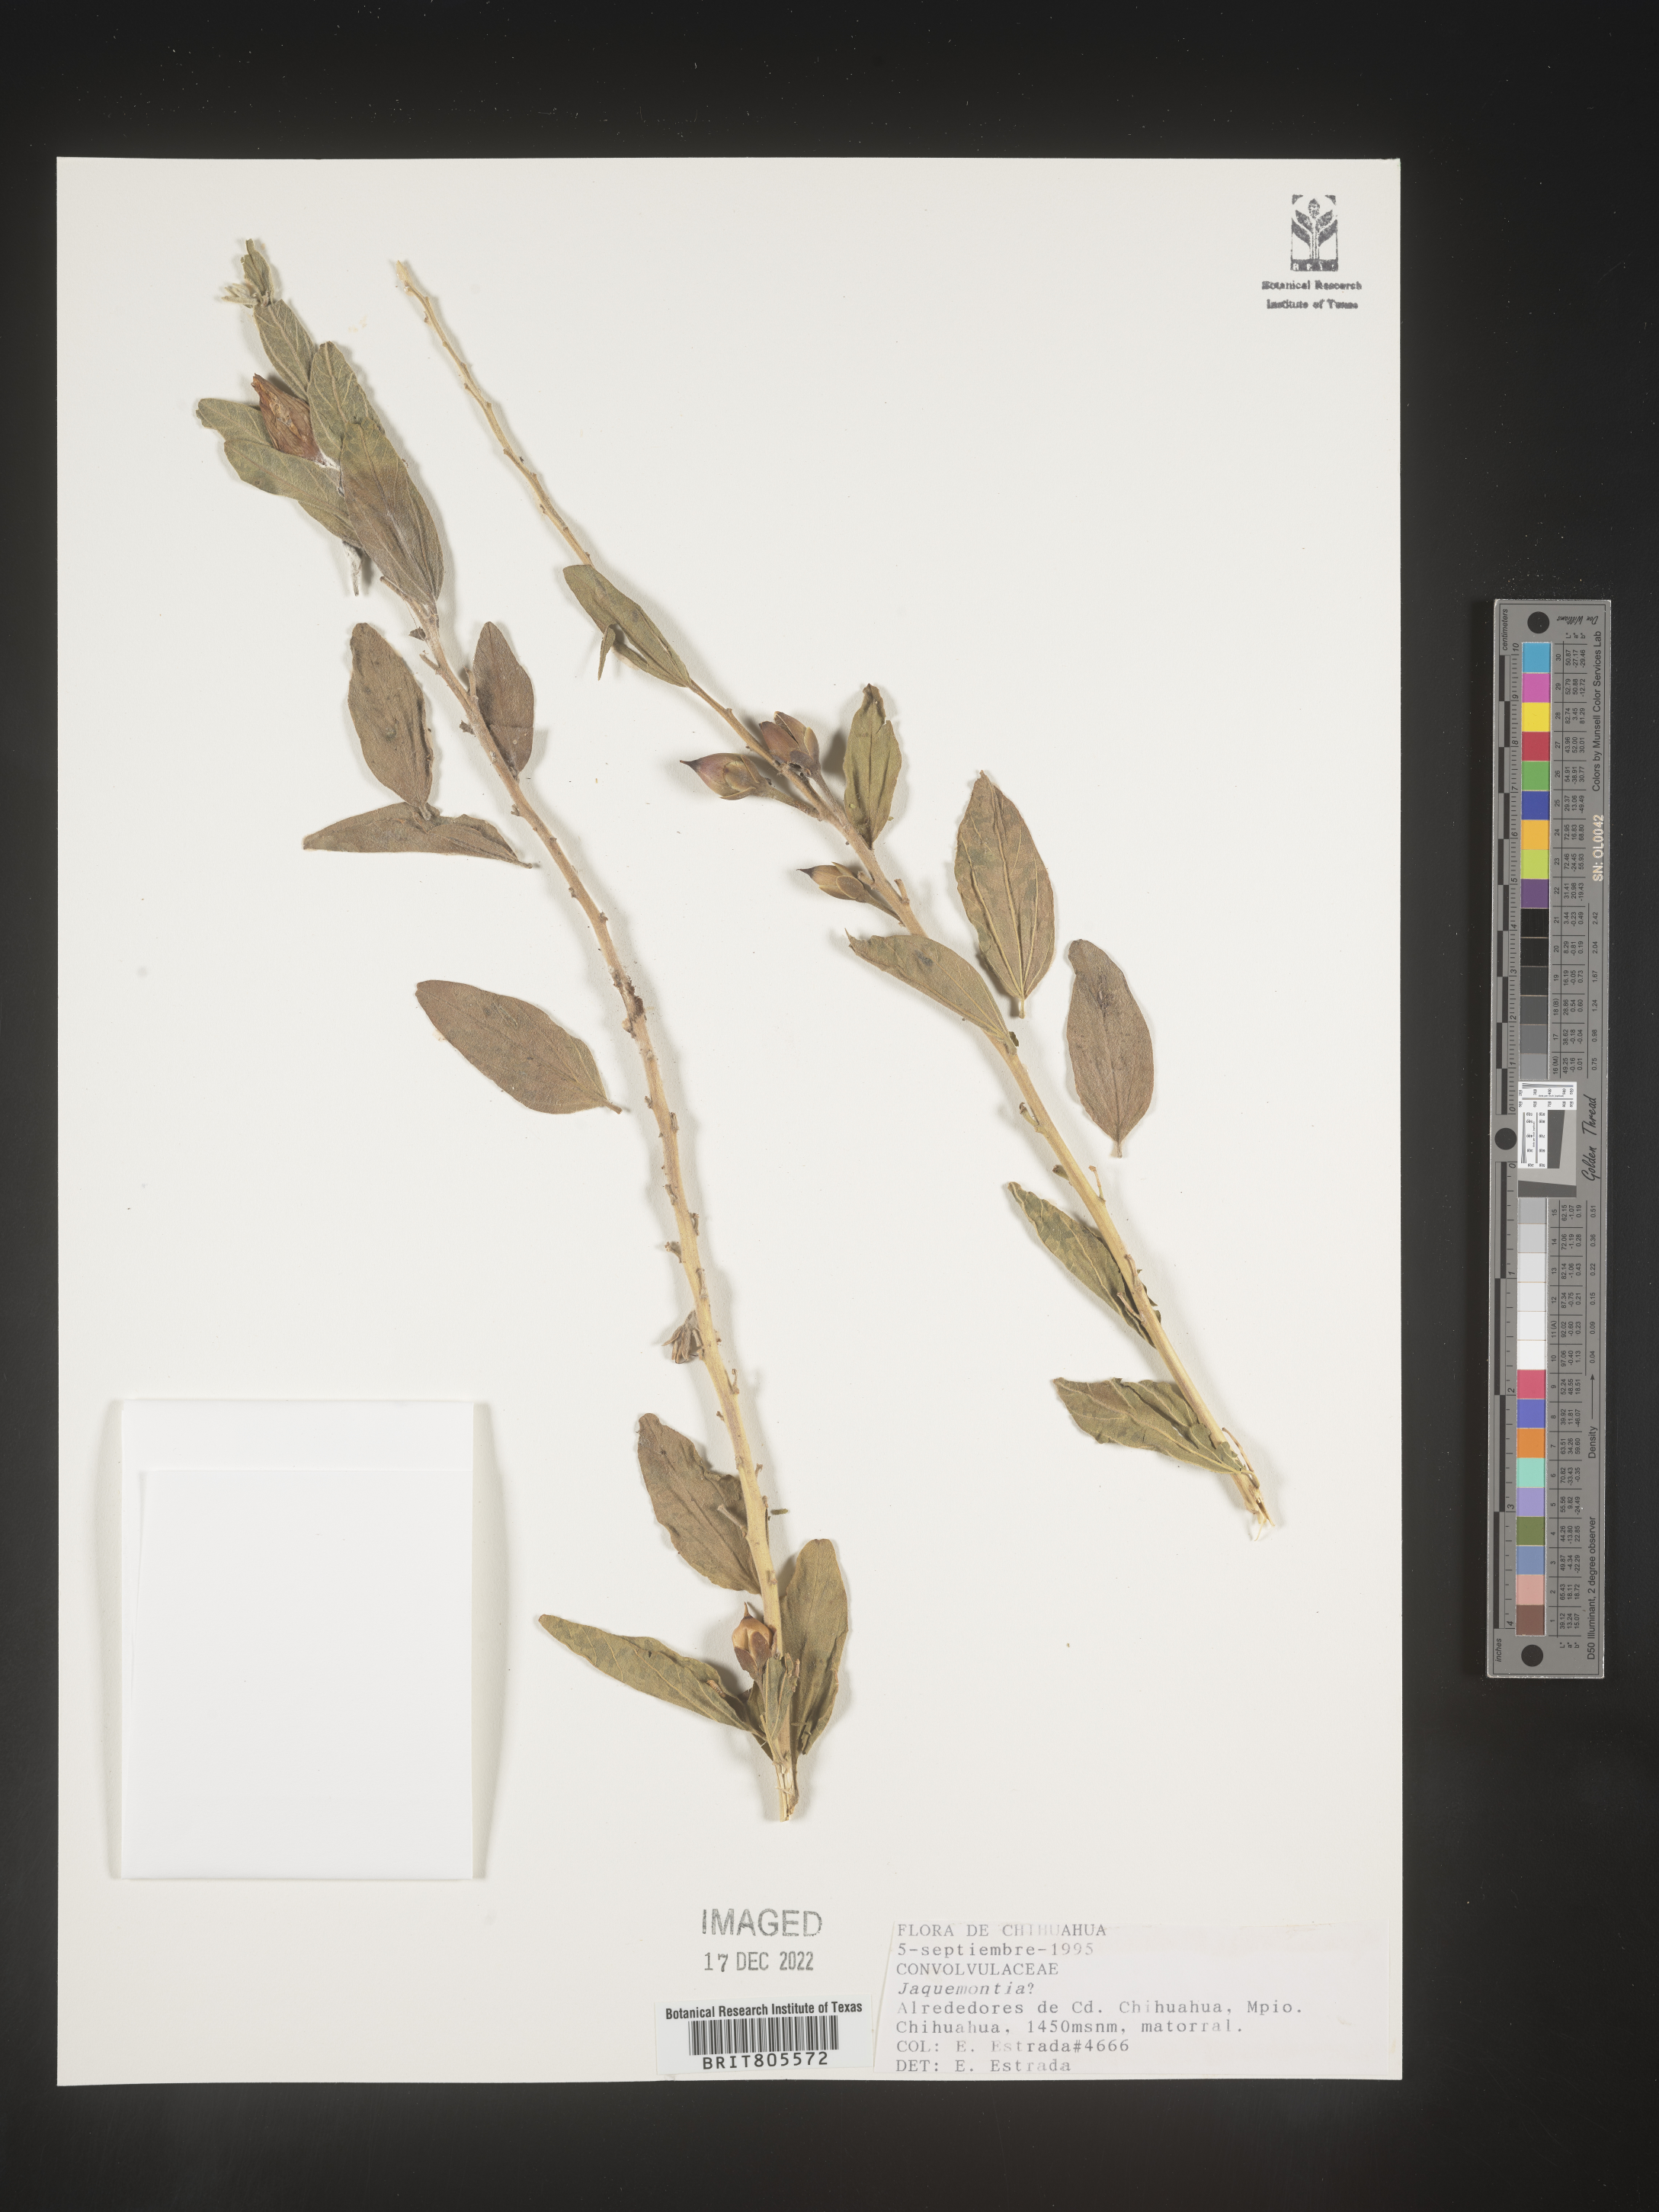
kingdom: Plantae
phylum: Tracheophyta
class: Magnoliopsida
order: Solanales
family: Convolvulaceae
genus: Jacquemontia
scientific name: Jacquemontia
